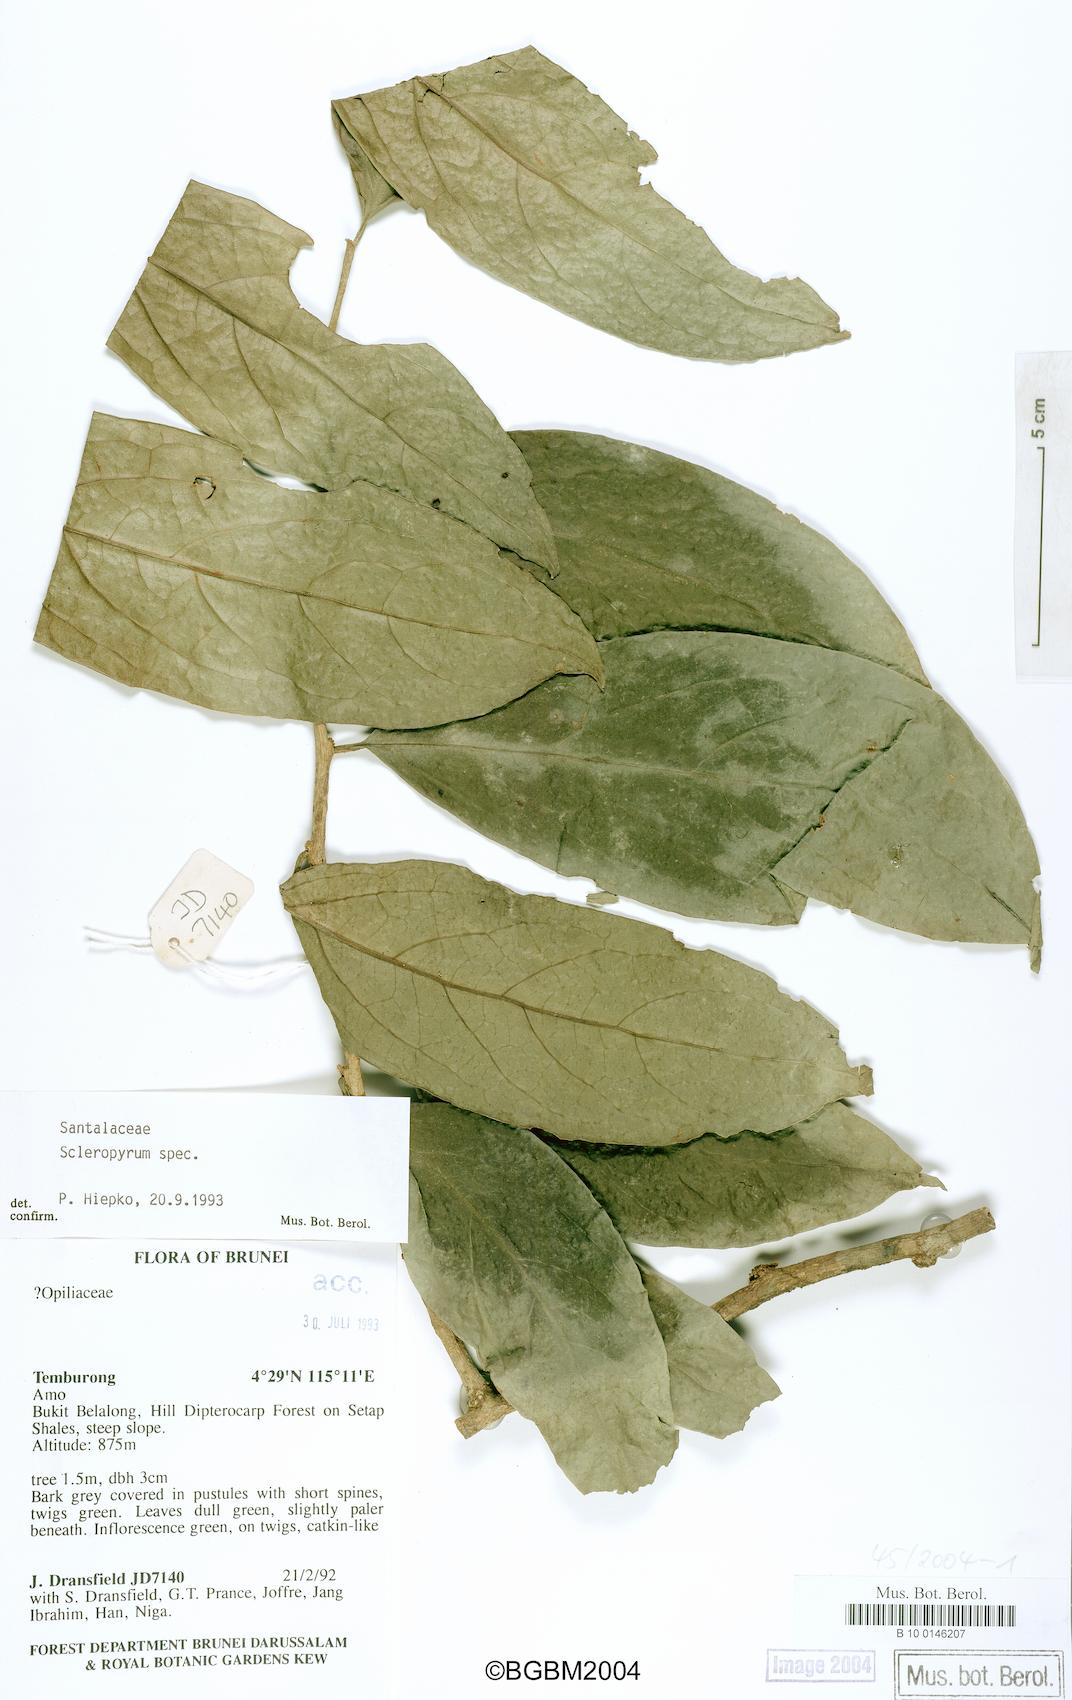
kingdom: Plantae
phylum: Tracheophyta
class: Magnoliopsida
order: Santalales
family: Cervantesiaceae
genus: Scleropyrum
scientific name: Scleropyrum
